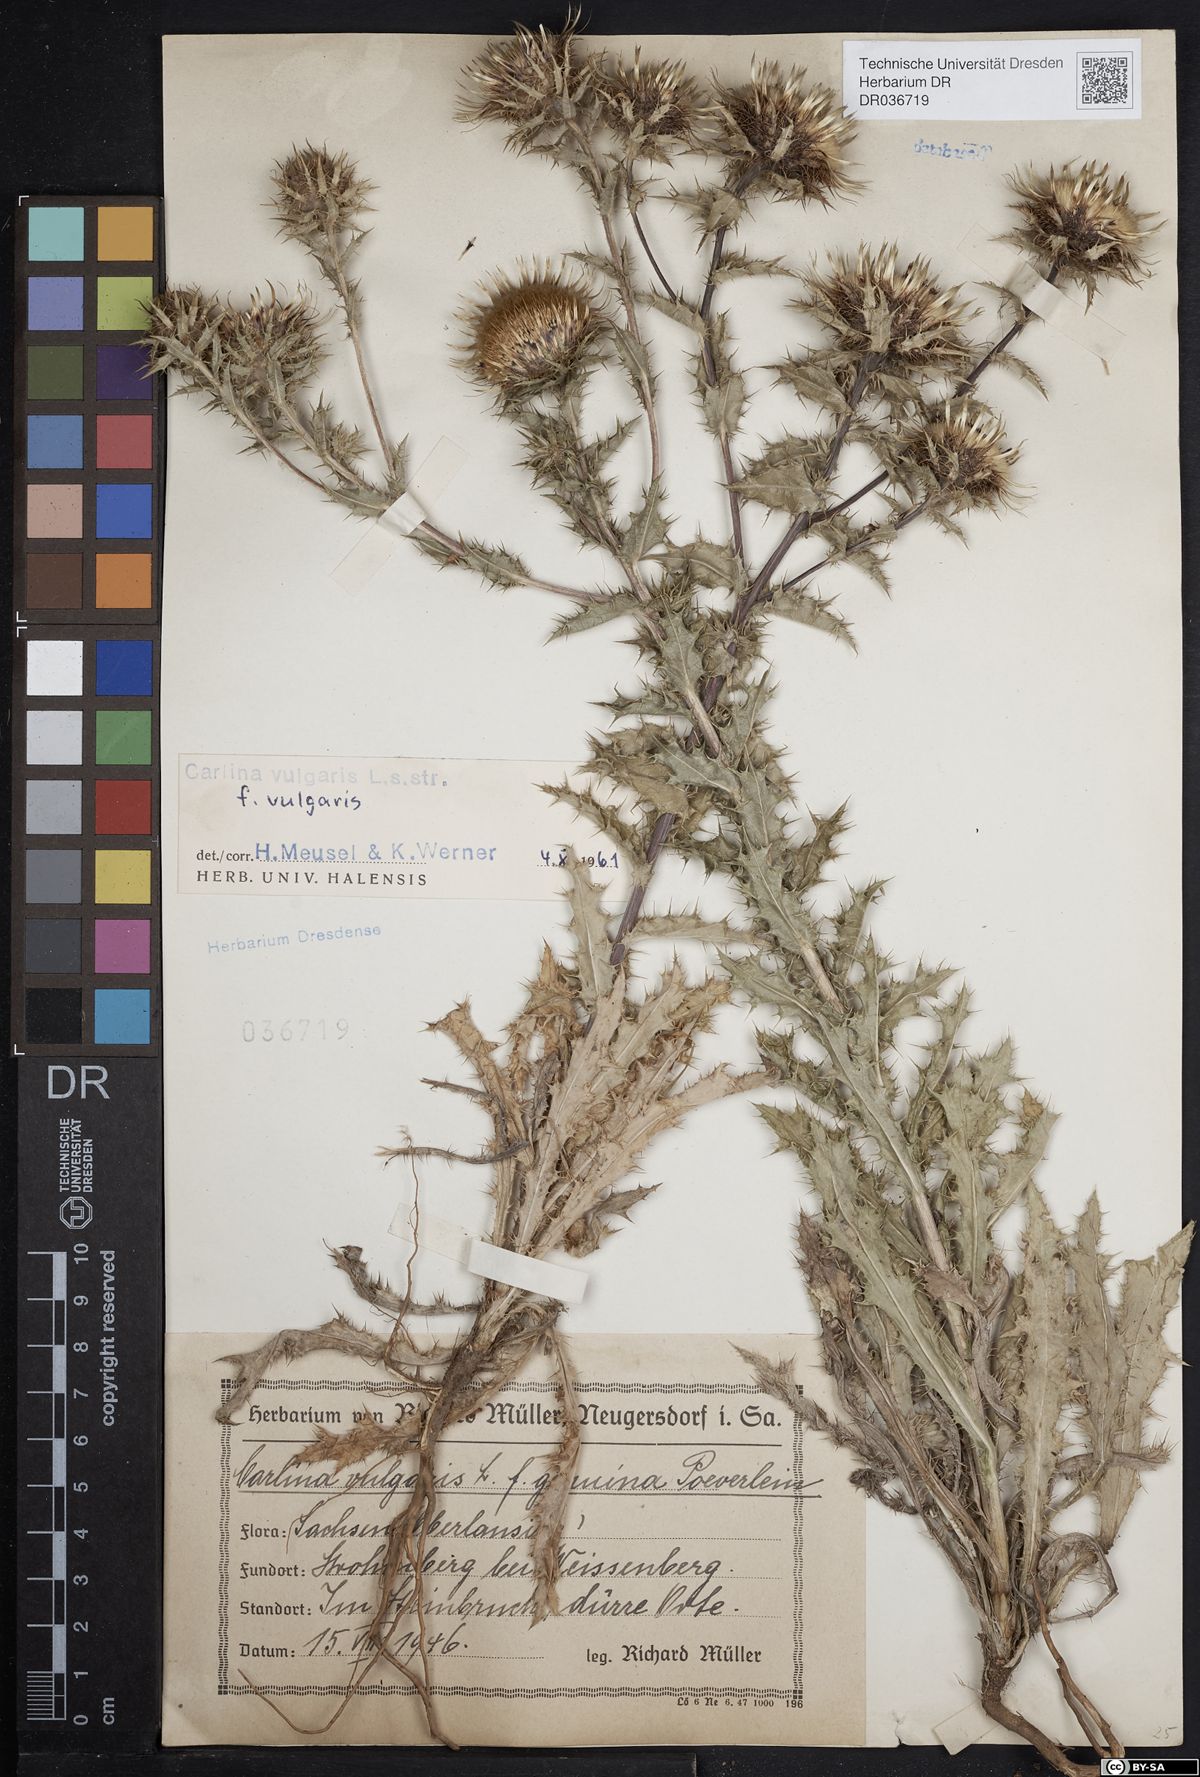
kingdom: Plantae
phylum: Tracheophyta
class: Magnoliopsida
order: Asterales
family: Asteraceae
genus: Carlina
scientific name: Carlina vulgaris
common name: Carline thistle
